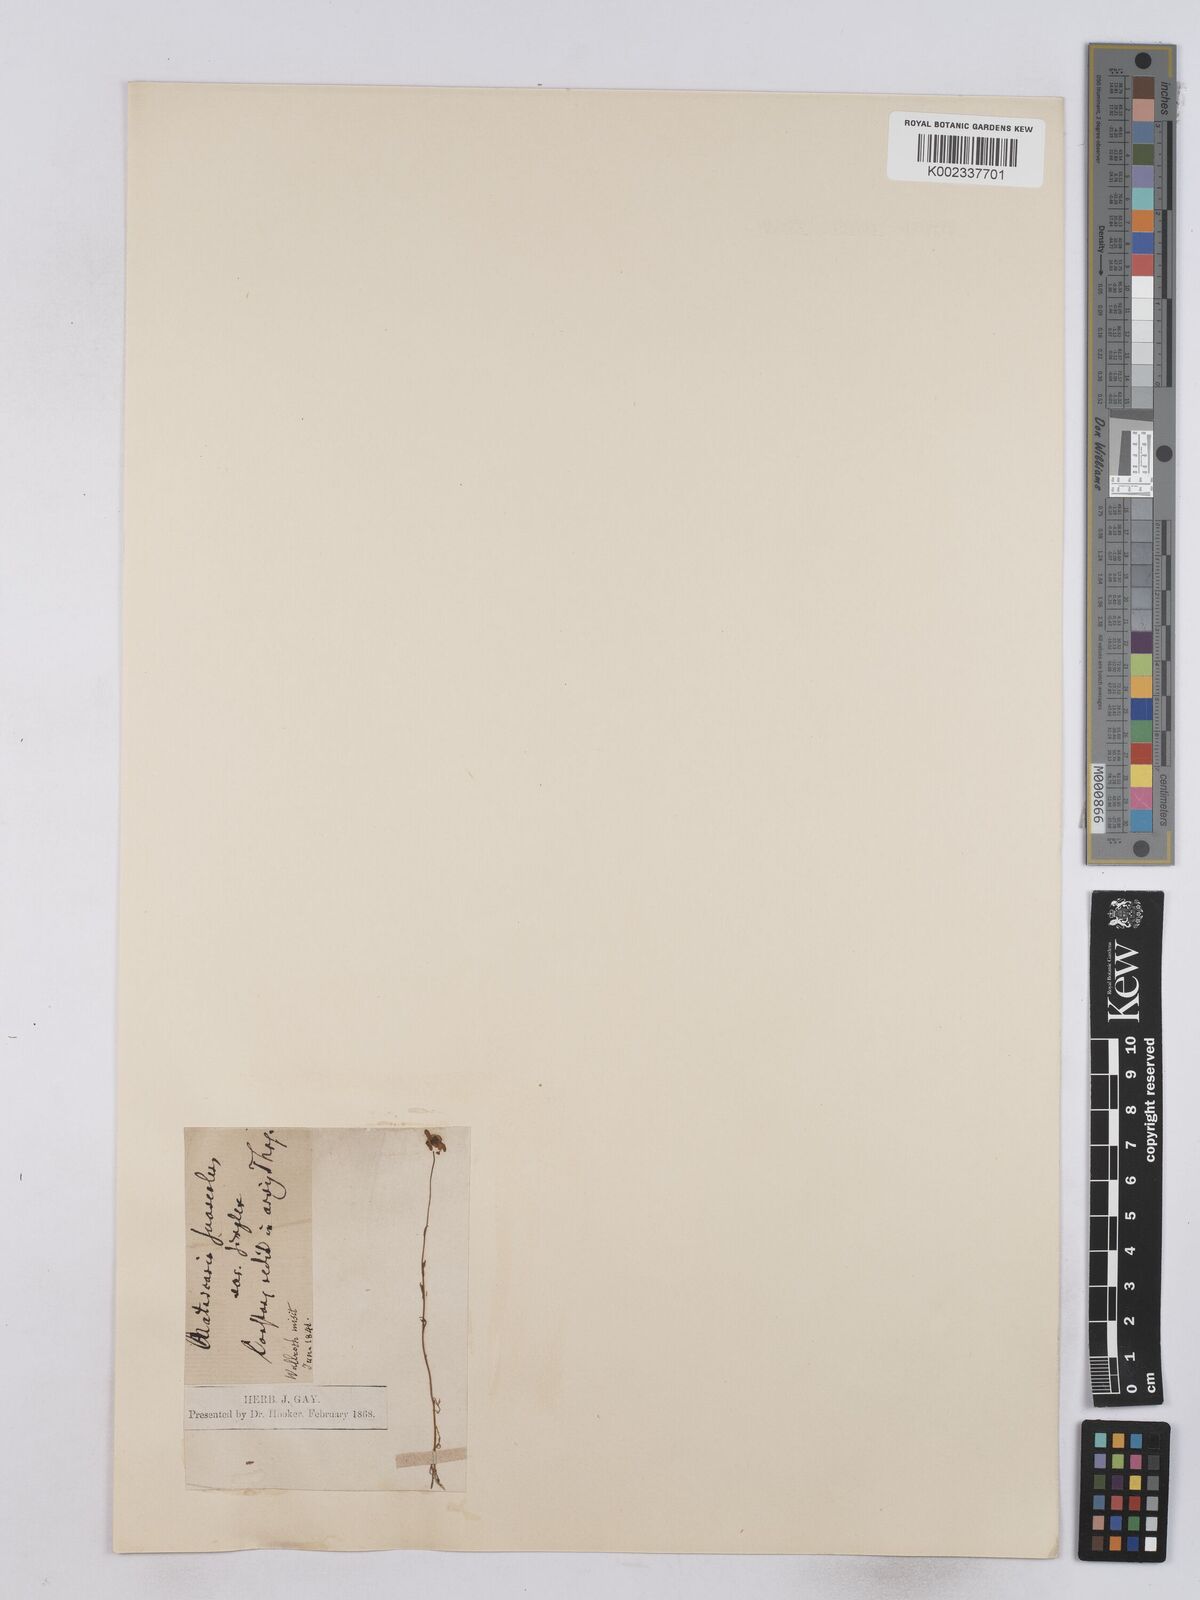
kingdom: Plantae
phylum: Tracheophyta
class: Magnoliopsida
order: Asterales
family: Asteraceae
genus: Matricaria
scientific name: Matricaria chamomilla
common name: Scented mayweed
